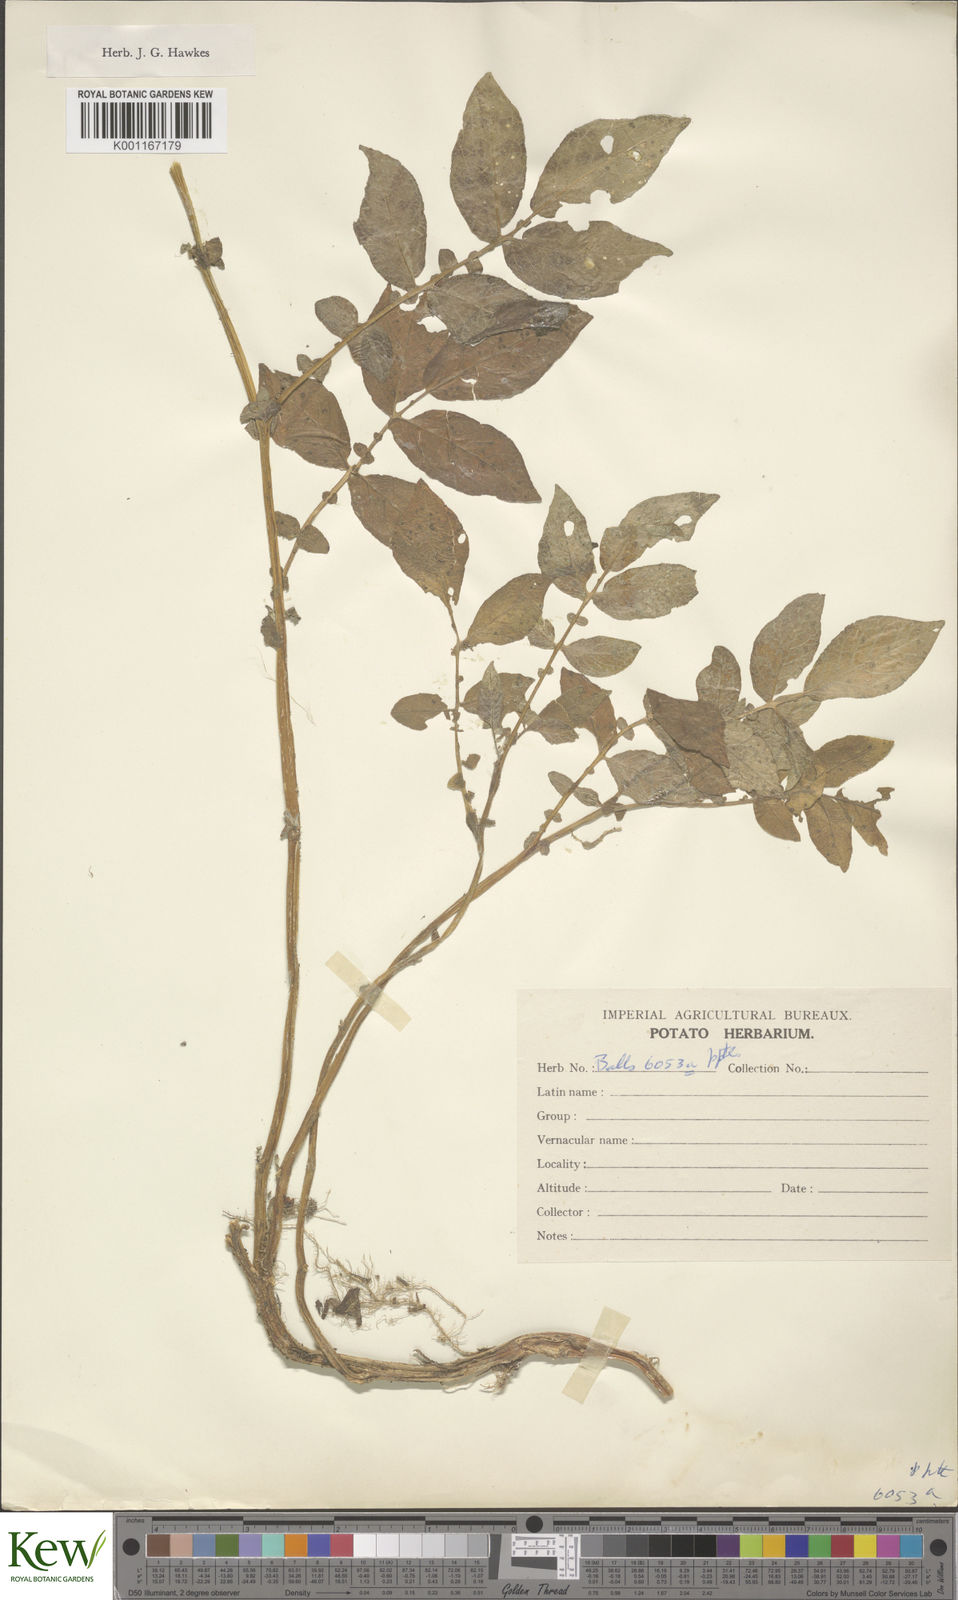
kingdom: Plantae
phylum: Tracheophyta
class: Magnoliopsida
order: Solanales
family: Solanaceae
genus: Solanum
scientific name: Solanum vernei
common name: Purple potato
